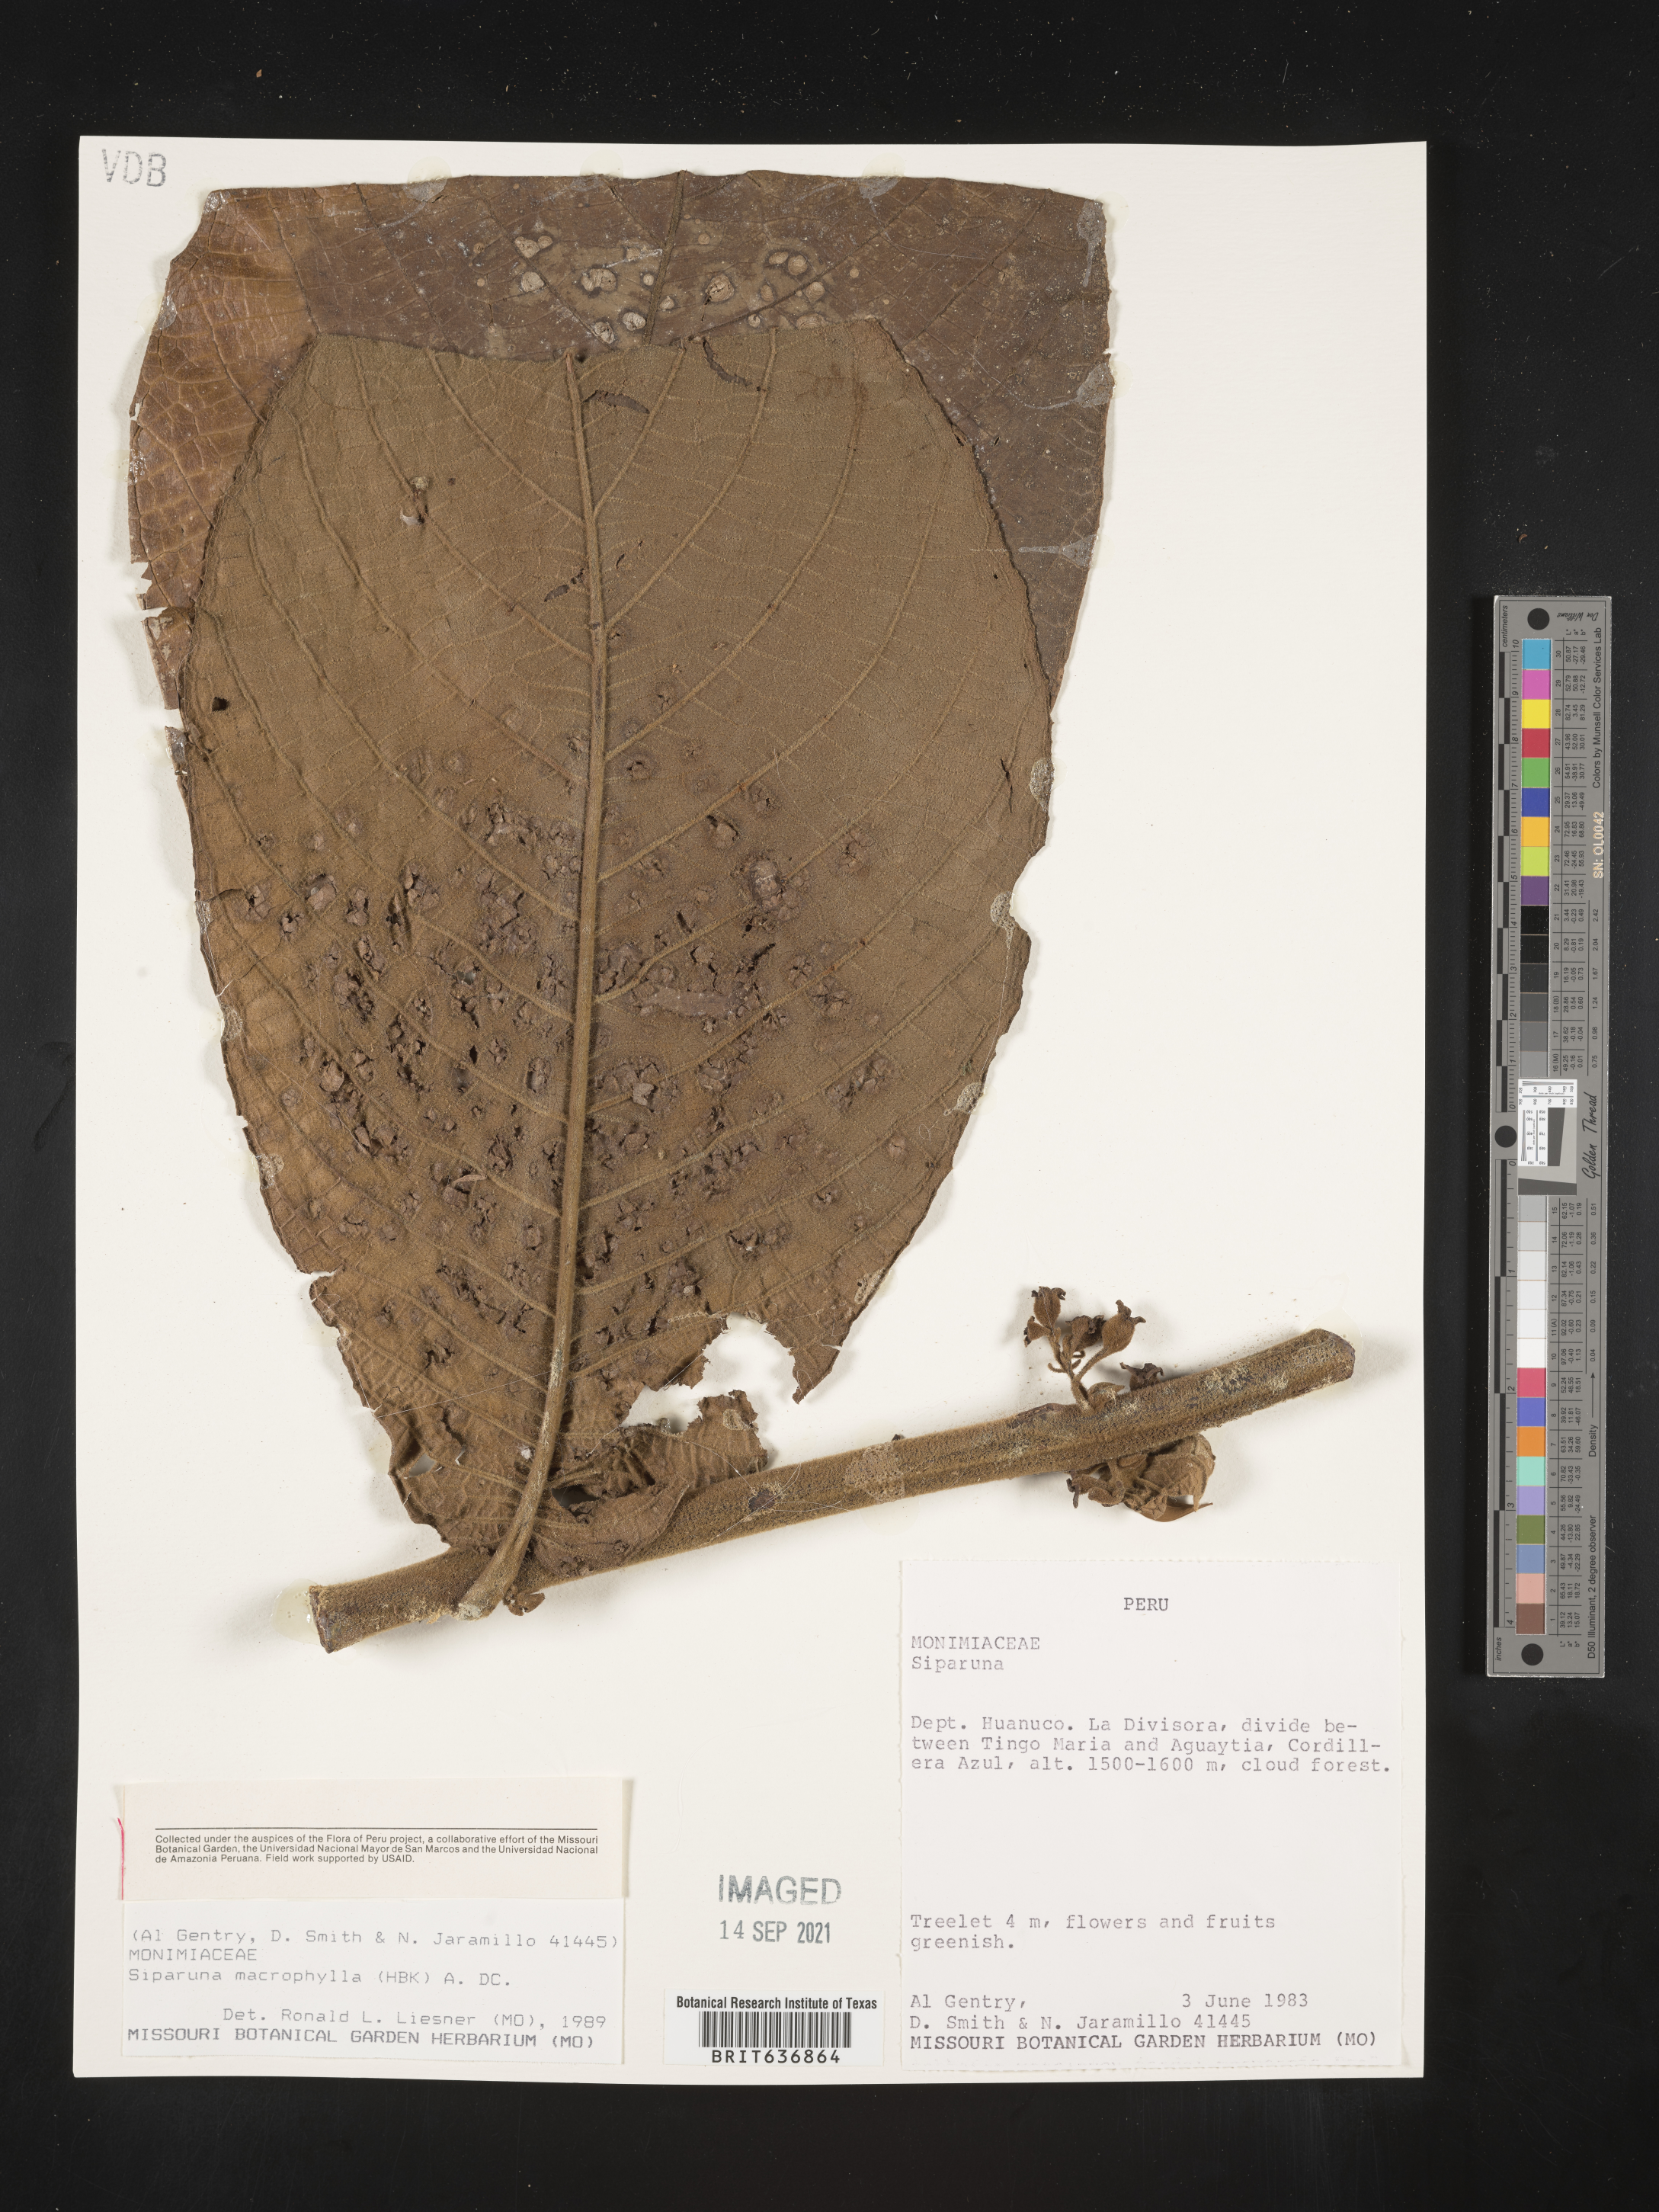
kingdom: Plantae
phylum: Tracheophyta
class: Magnoliopsida
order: Laurales
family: Siparunaceae
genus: Siparuna
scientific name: Siparuna
